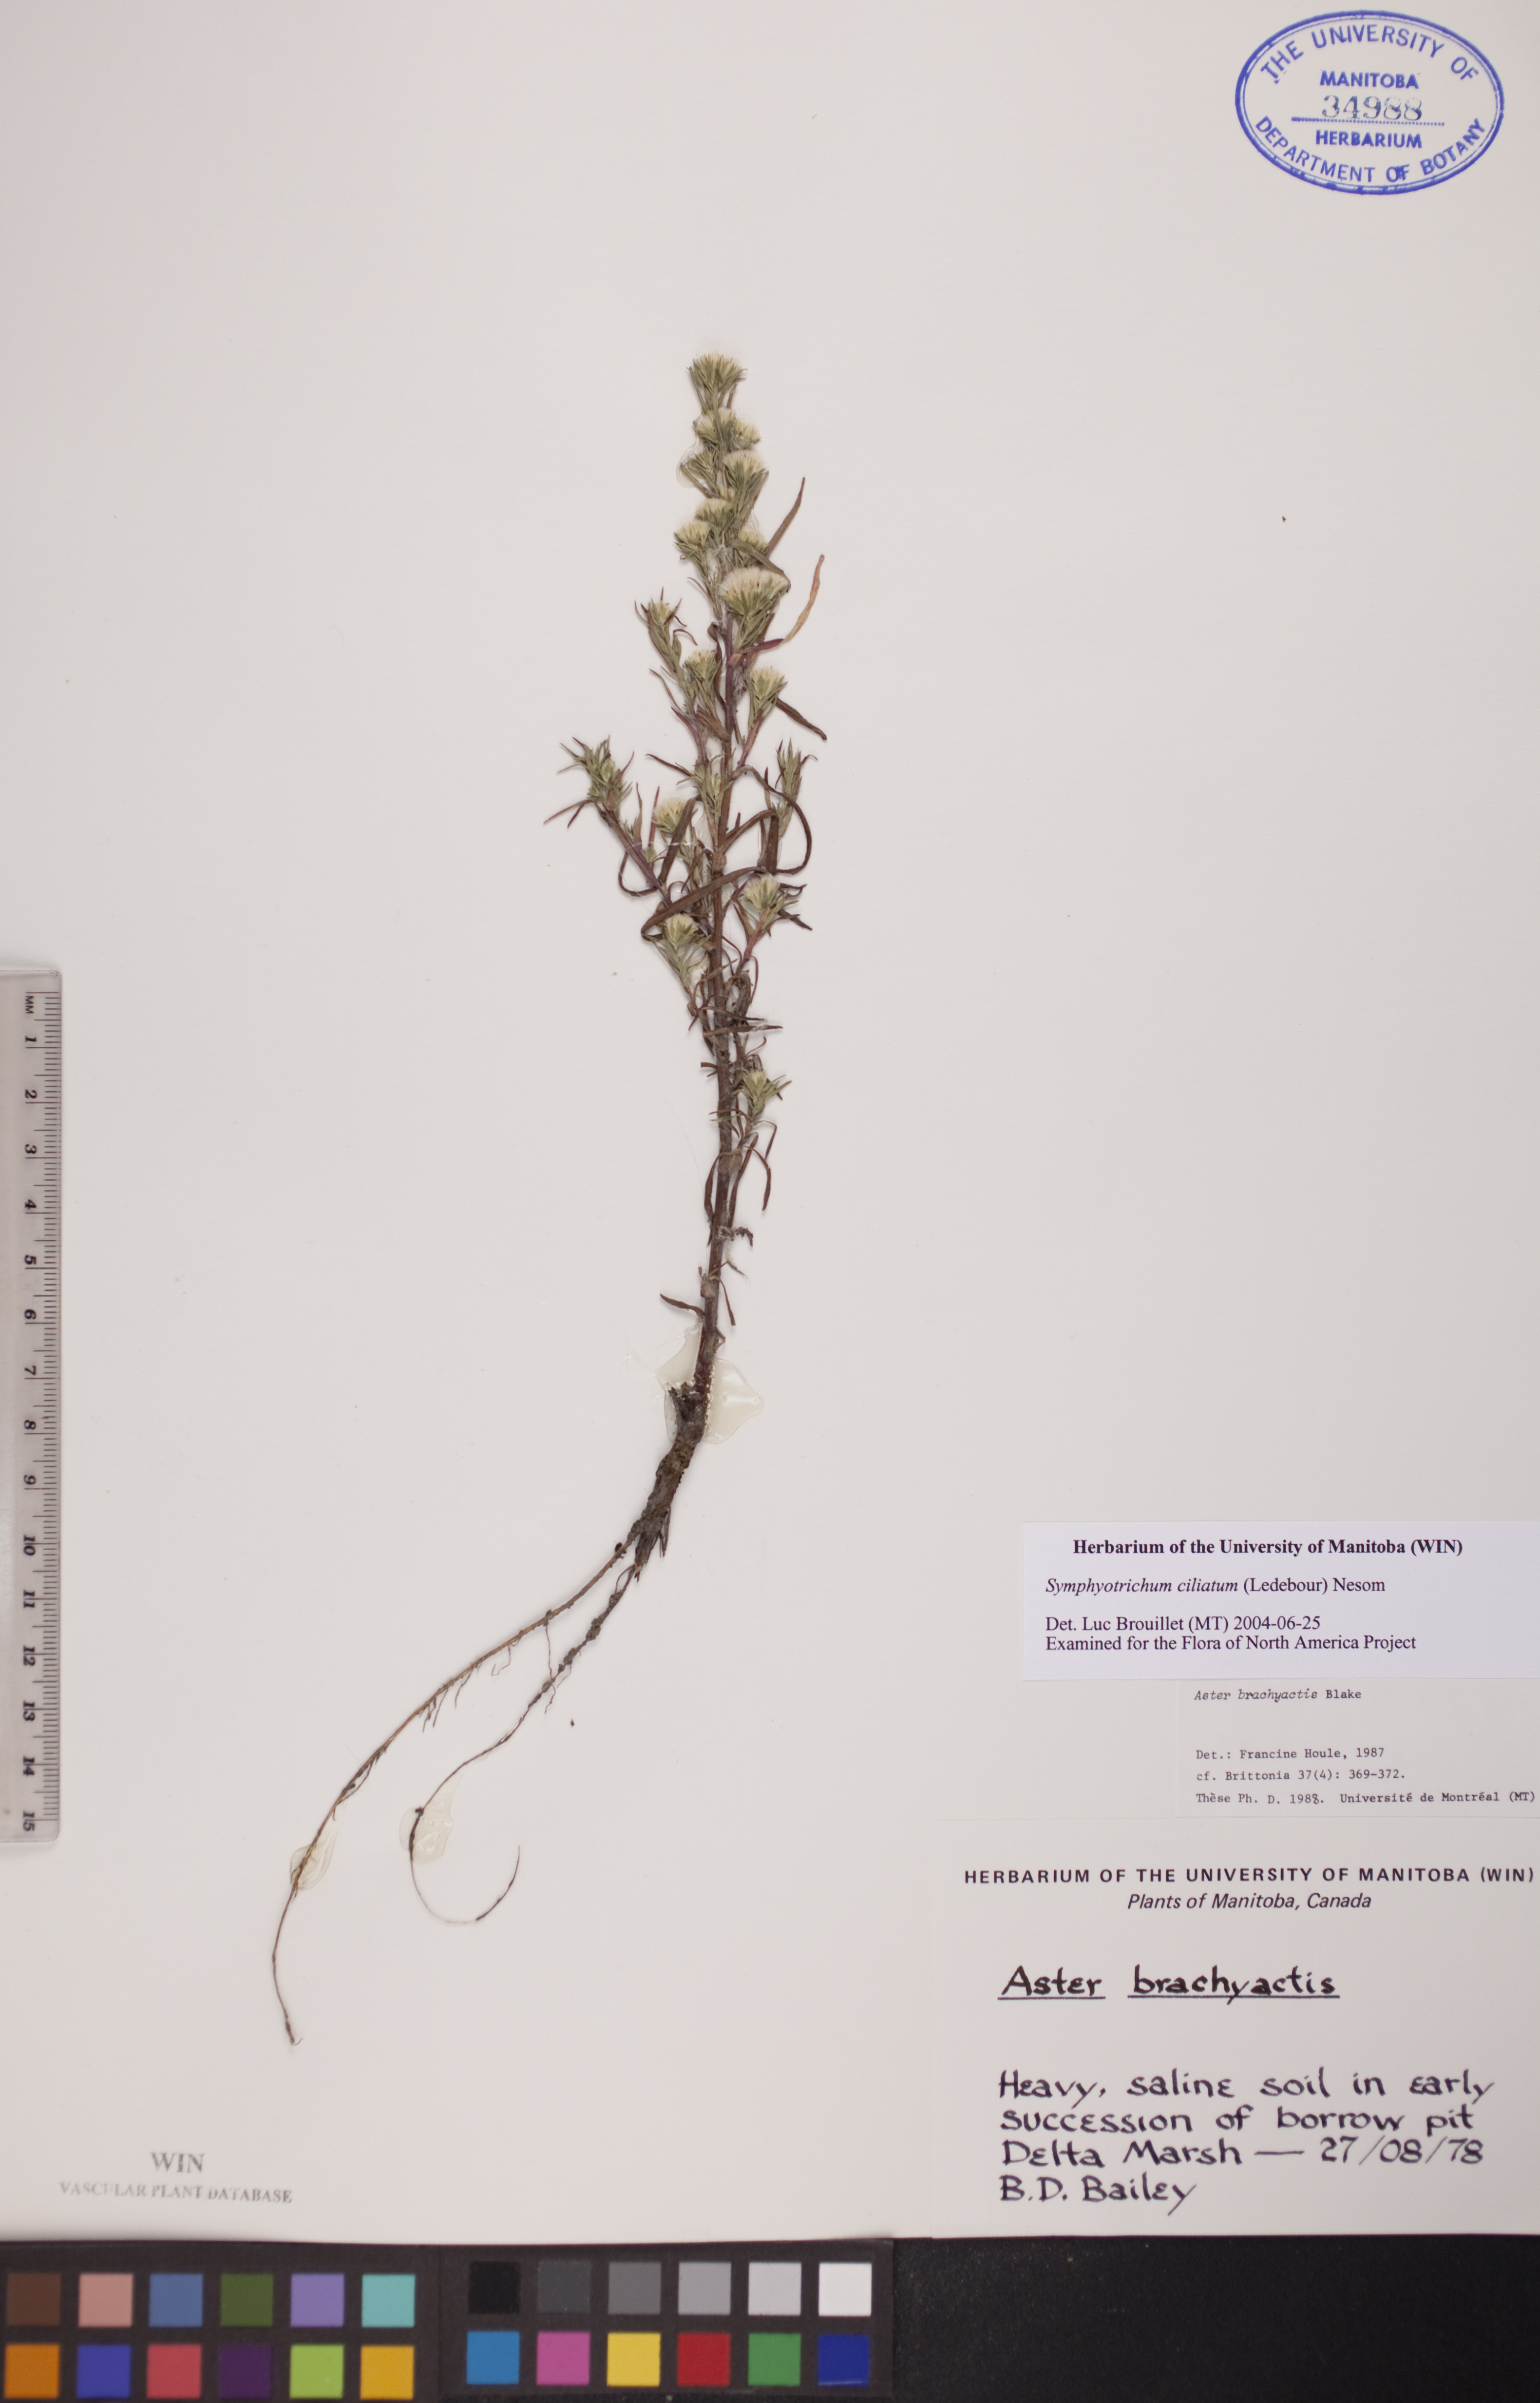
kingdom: Plantae
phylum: Tracheophyta
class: Magnoliopsida
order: Asterales
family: Asteraceae
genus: Symphyotrichum
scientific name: Symphyotrichum ciliatum
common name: Rayless annual aster
